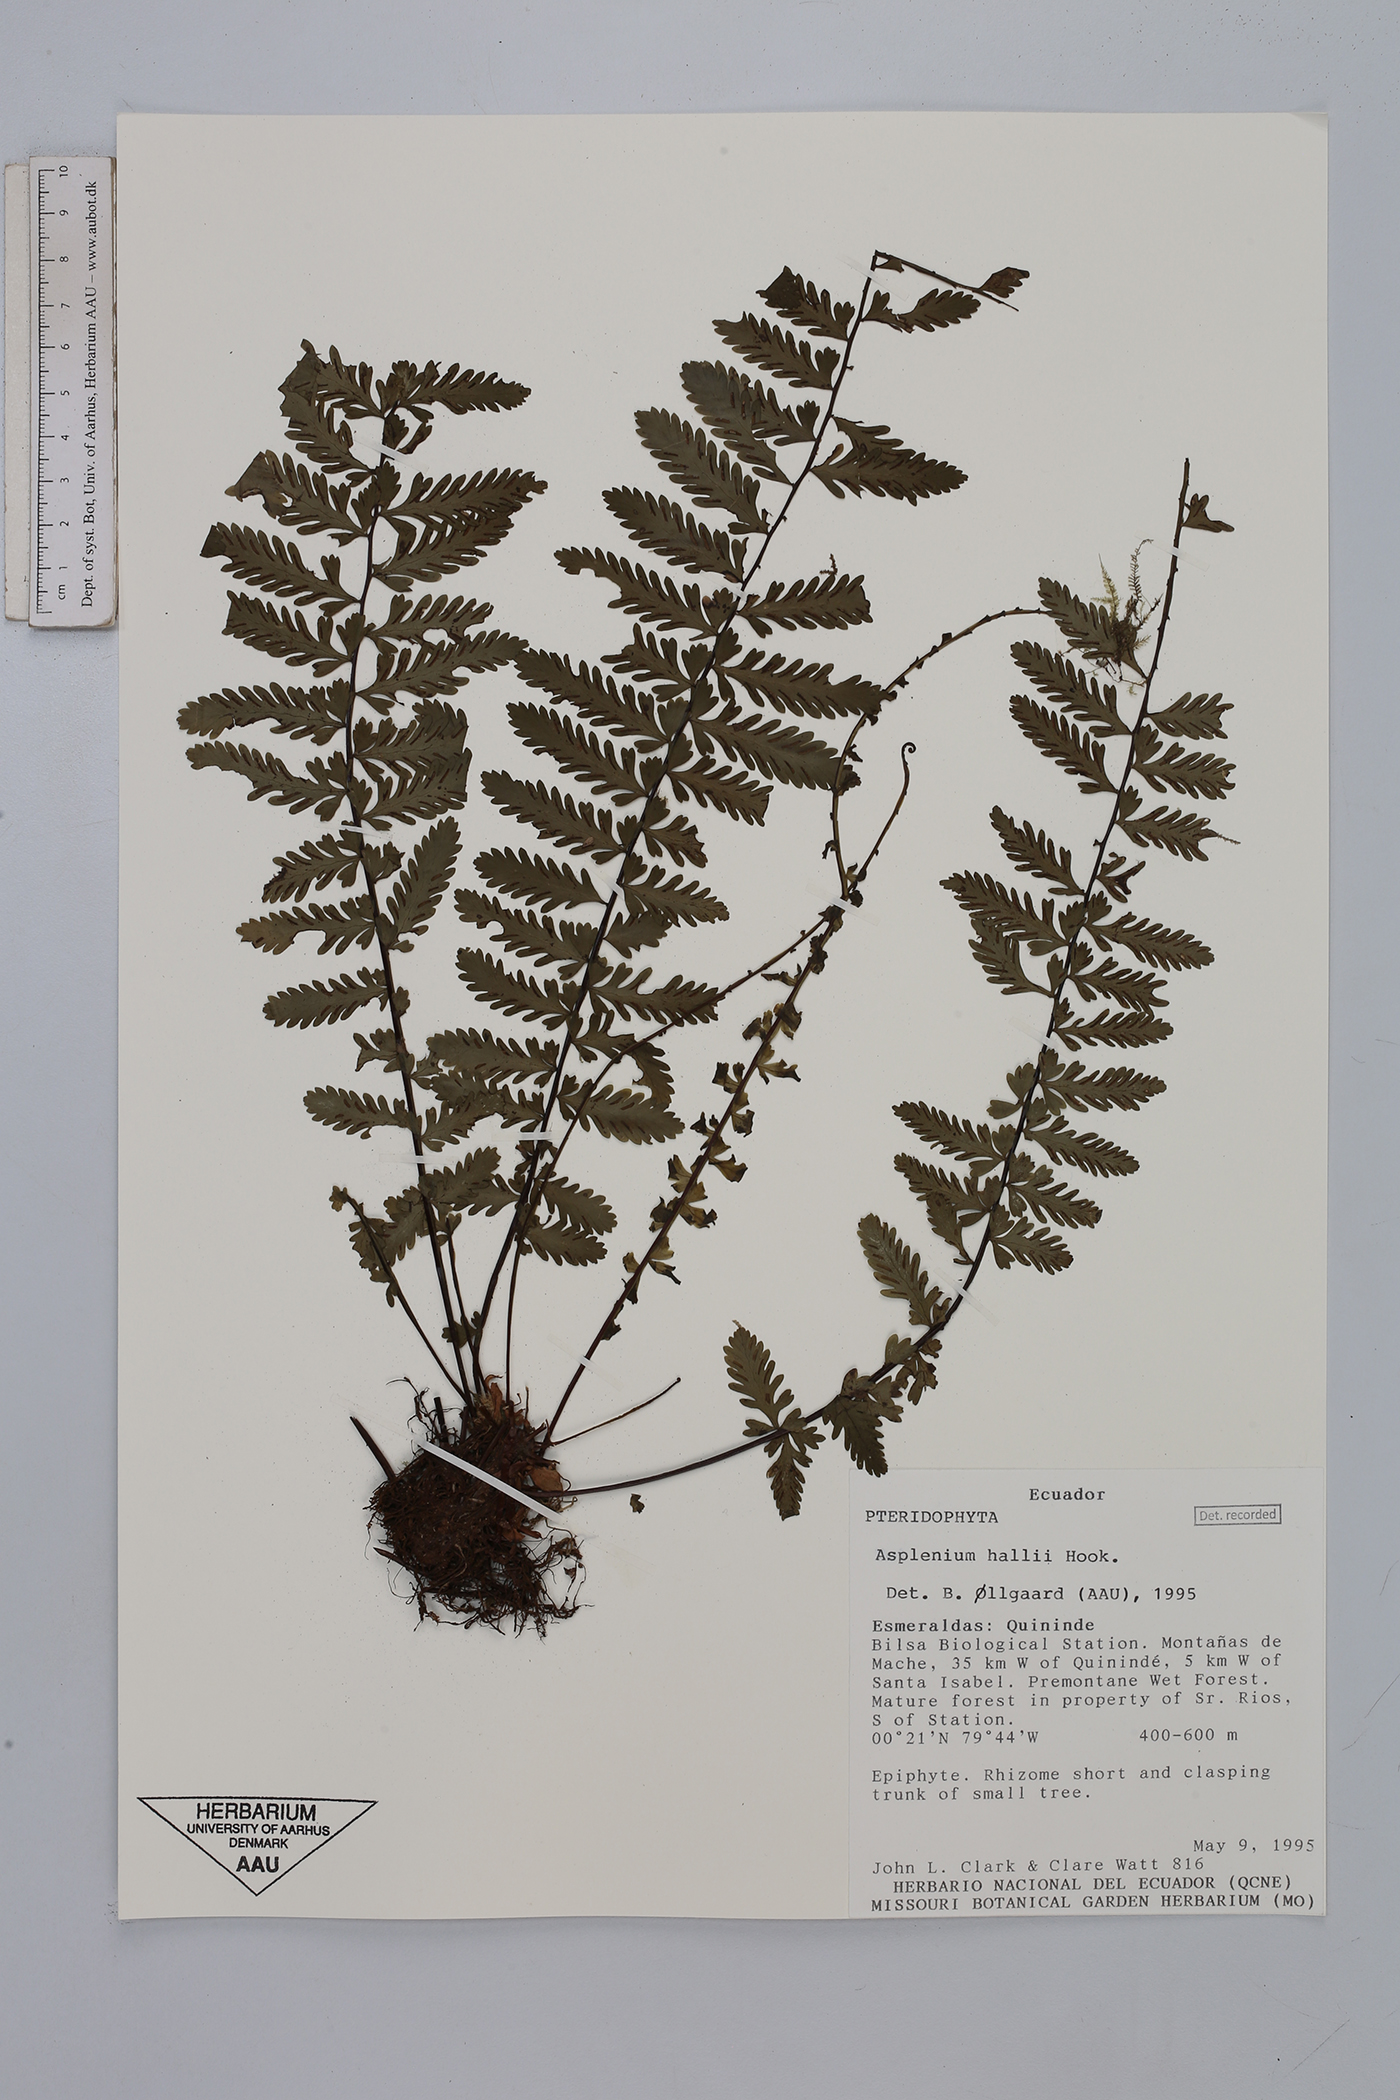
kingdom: Plantae
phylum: Tracheophyta
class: Polypodiopsida
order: Polypodiales
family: Aspleniaceae
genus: Asplenium
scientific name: Asplenium hallii
